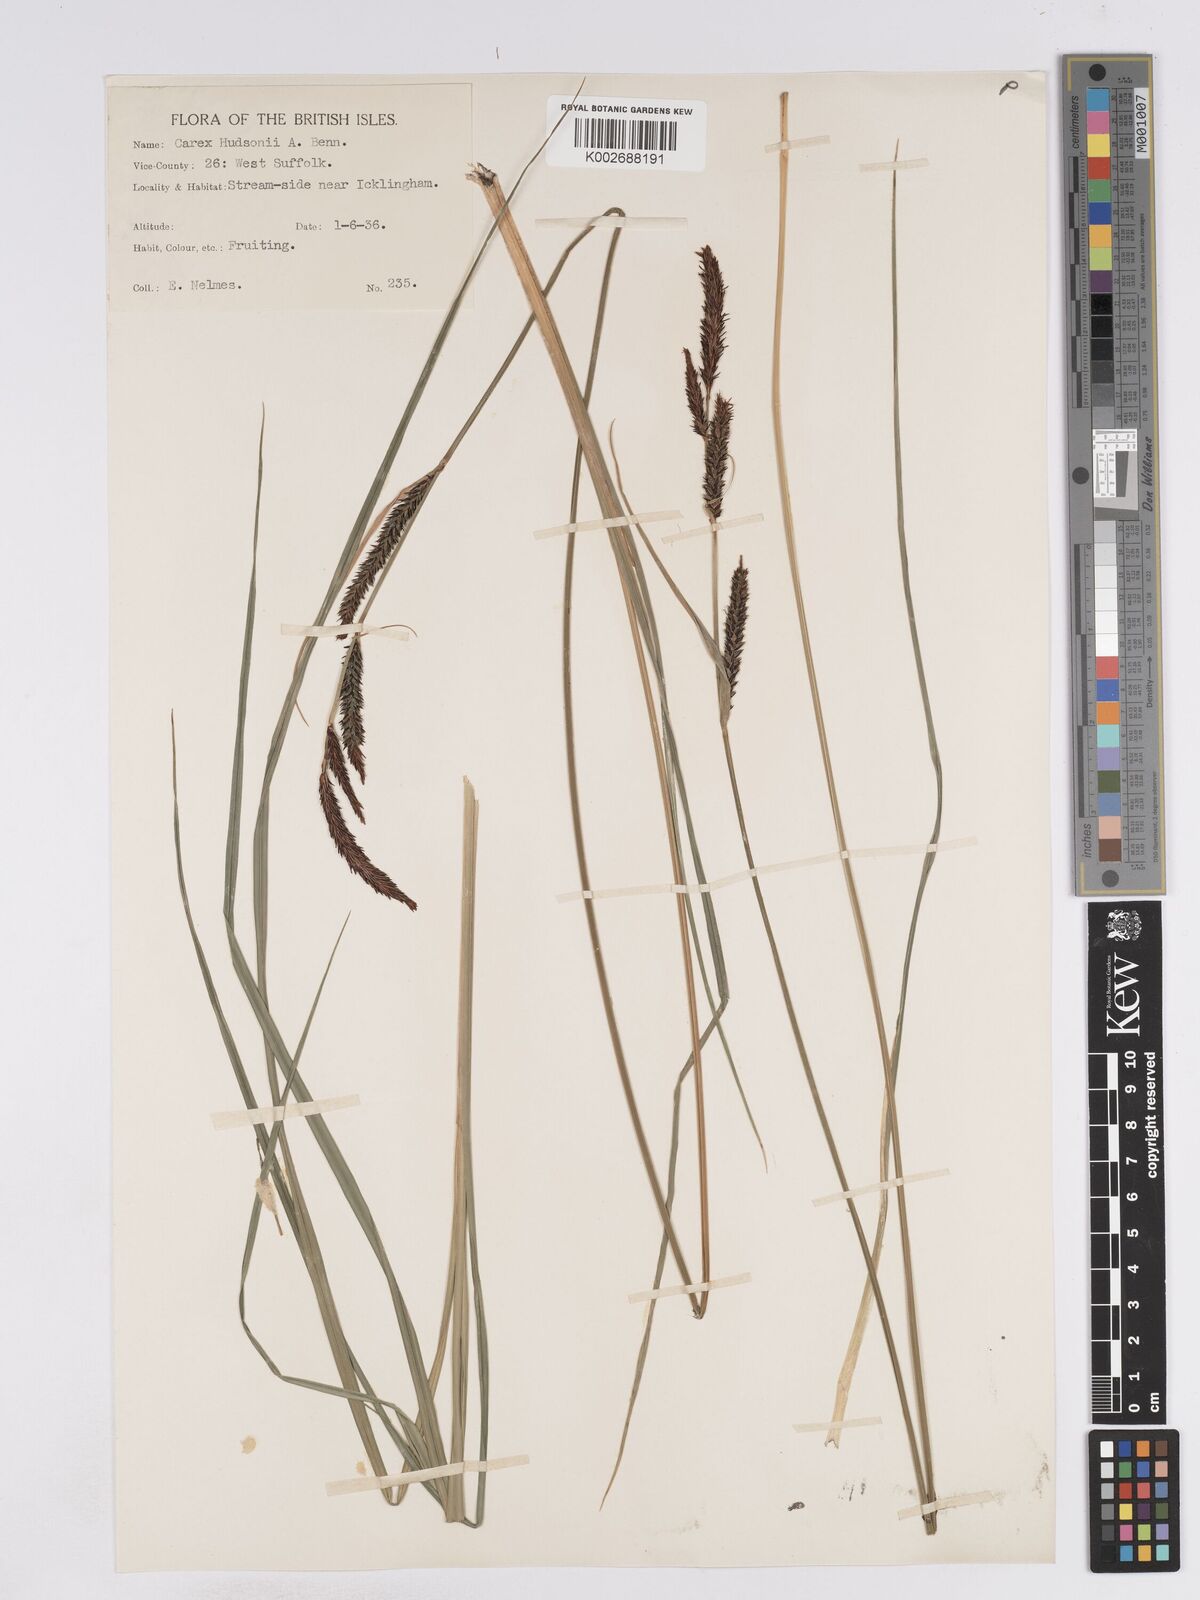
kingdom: Plantae
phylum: Tracheophyta
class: Liliopsida
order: Poales
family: Cyperaceae
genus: Carex
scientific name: Carex elata
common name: Tufted sedge
